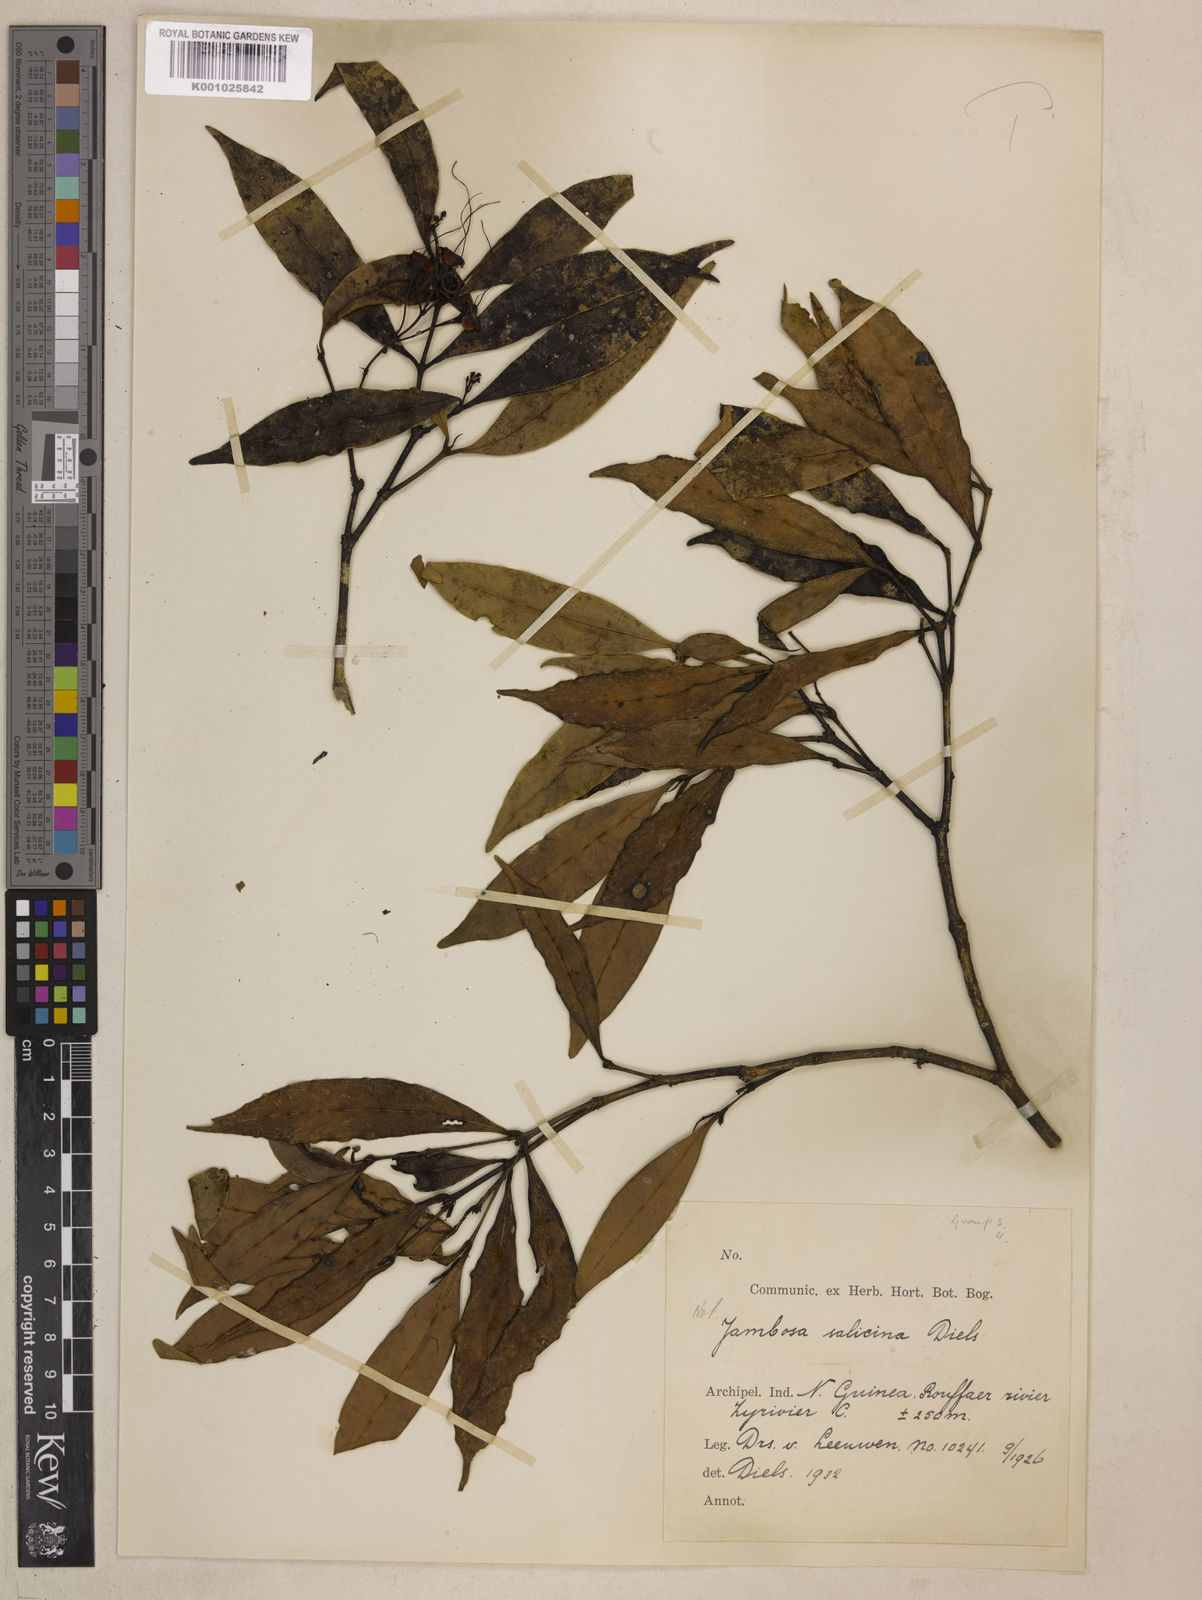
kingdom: Plantae
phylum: Tracheophyta
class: Magnoliopsida
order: Myrtales
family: Myrtaceae
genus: Syzygium
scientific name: Syzygium salicinum
